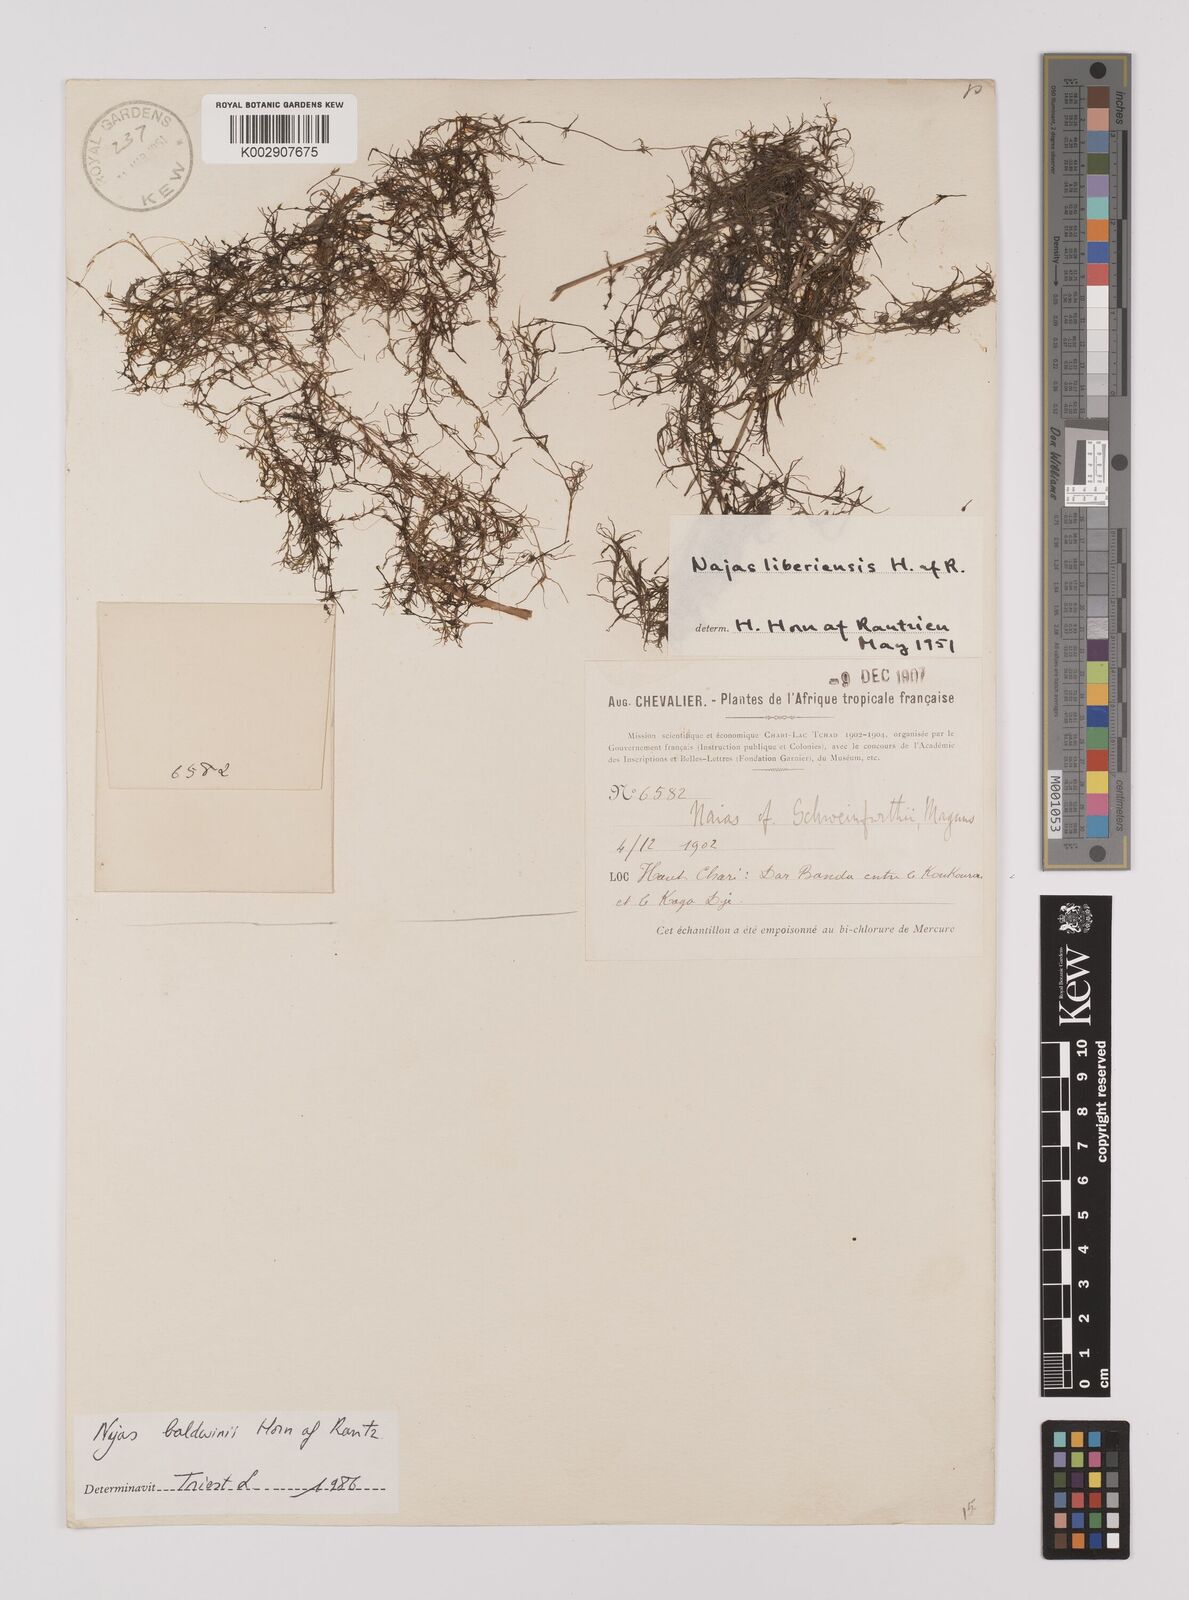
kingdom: Plantae
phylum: Tracheophyta
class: Liliopsida
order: Alismatales
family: Hydrocharitaceae
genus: Najas
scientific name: Najas baldwinii
